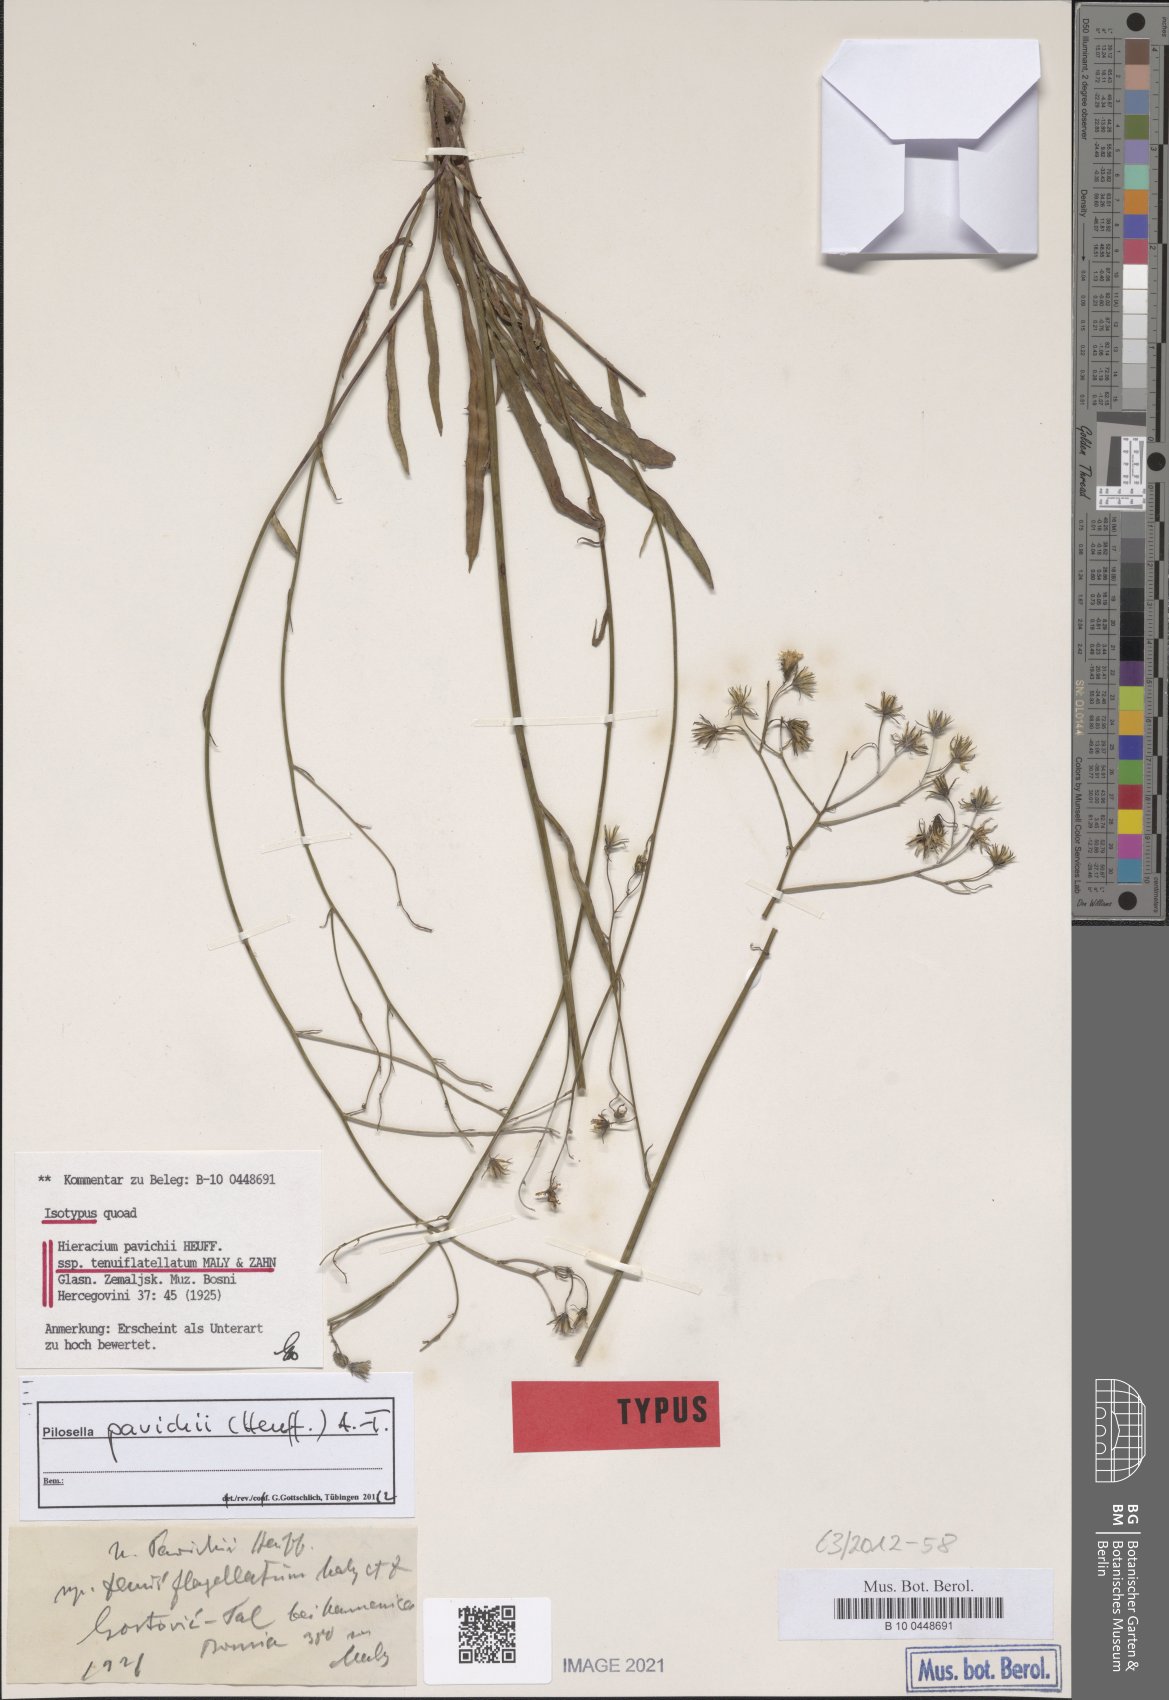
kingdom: Plantae
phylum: Tracheophyta
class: Magnoliopsida
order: Asterales
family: Asteraceae
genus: Pilosella
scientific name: Pilosella pavichii
